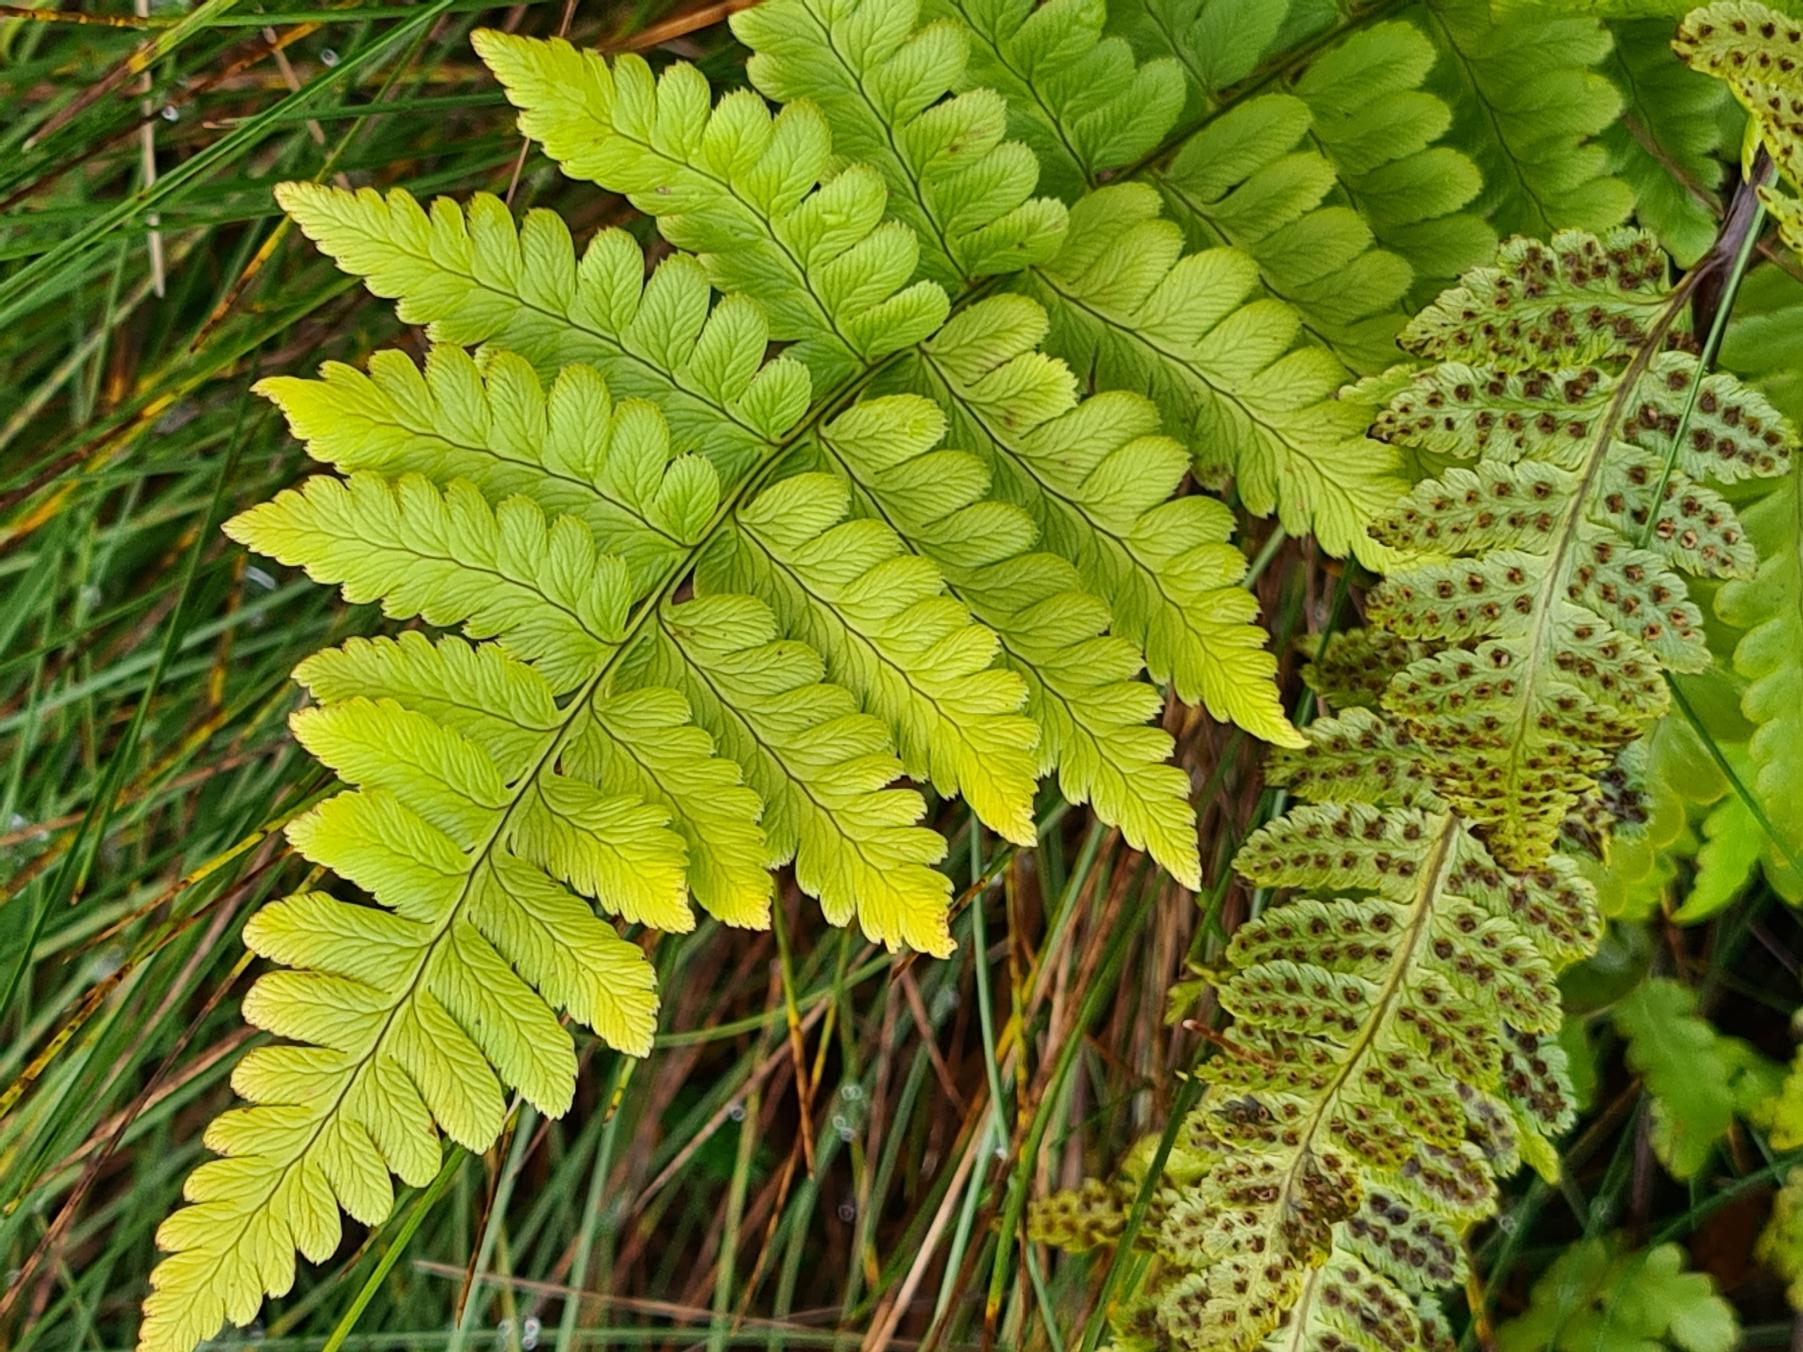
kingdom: Plantae
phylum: Tracheophyta
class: Polypodiopsida
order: Polypodiales
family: Dryopteridaceae
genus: Dryopteris
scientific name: Dryopteris cristata
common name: Butfinnet mangeløv
